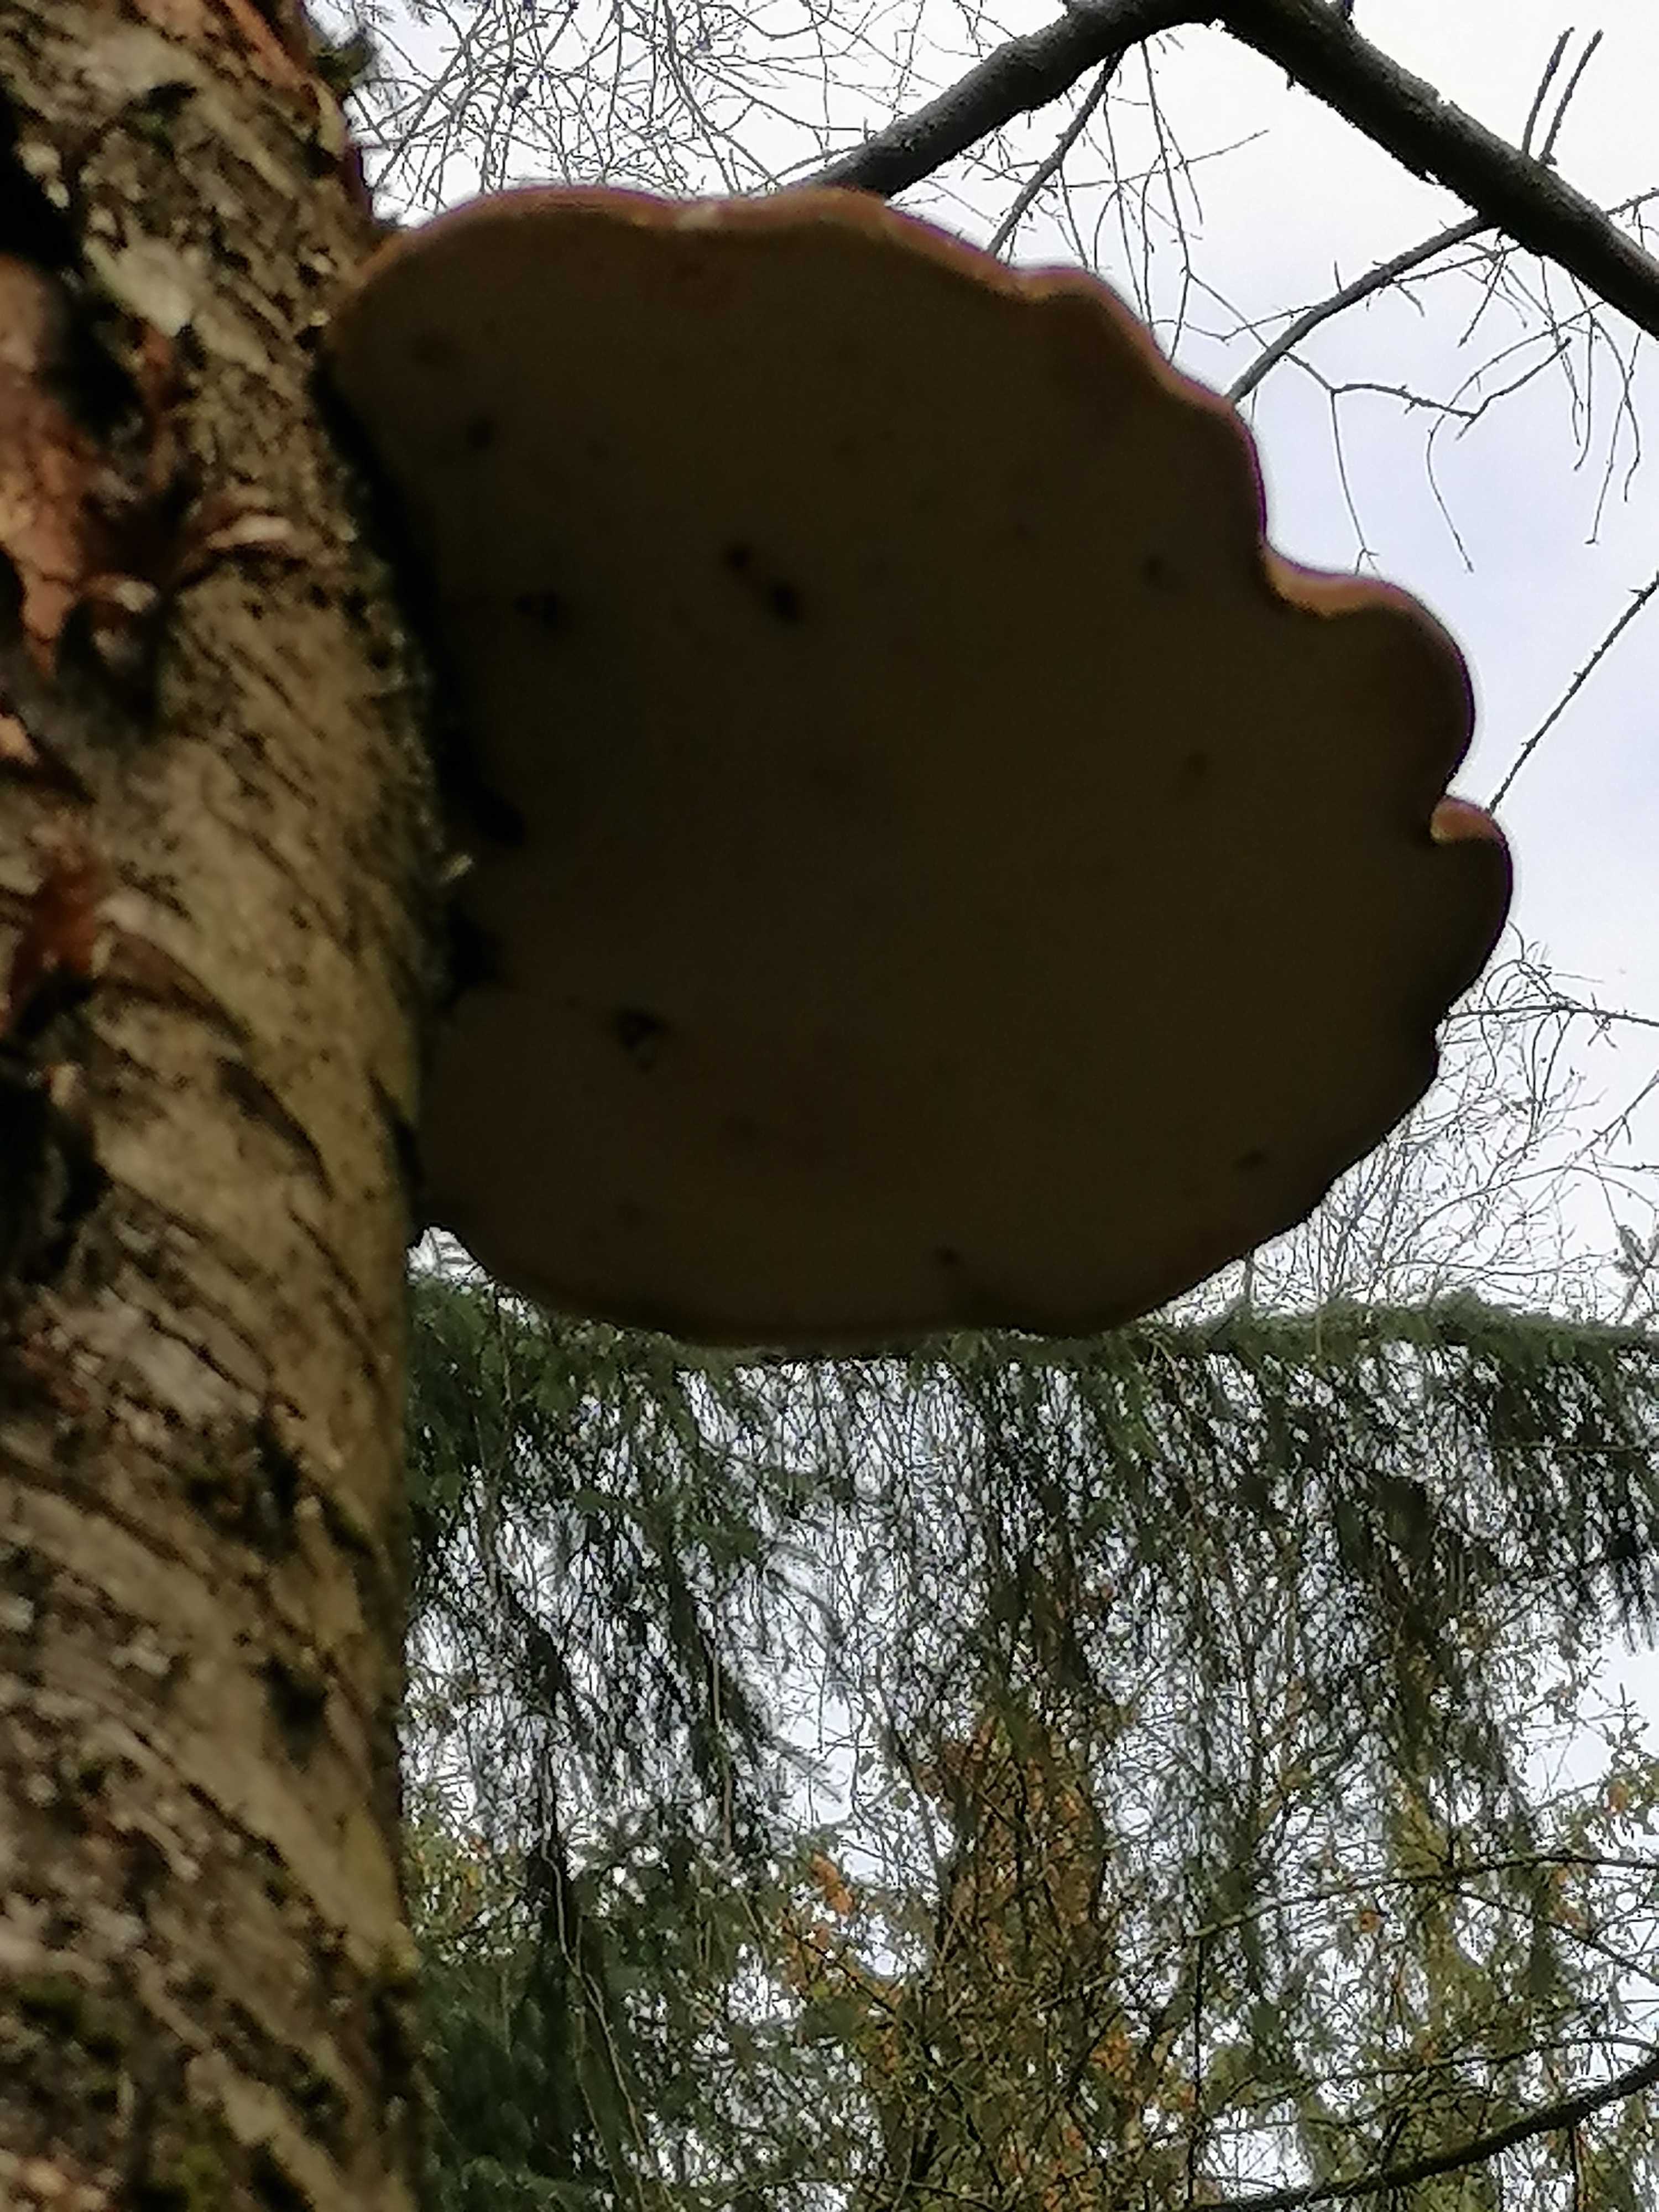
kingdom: Fungi
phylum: Basidiomycota
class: Agaricomycetes
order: Polyporales
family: Fomitopsidaceae
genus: Fomitopsis
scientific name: Fomitopsis betulina
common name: birkeporesvamp
